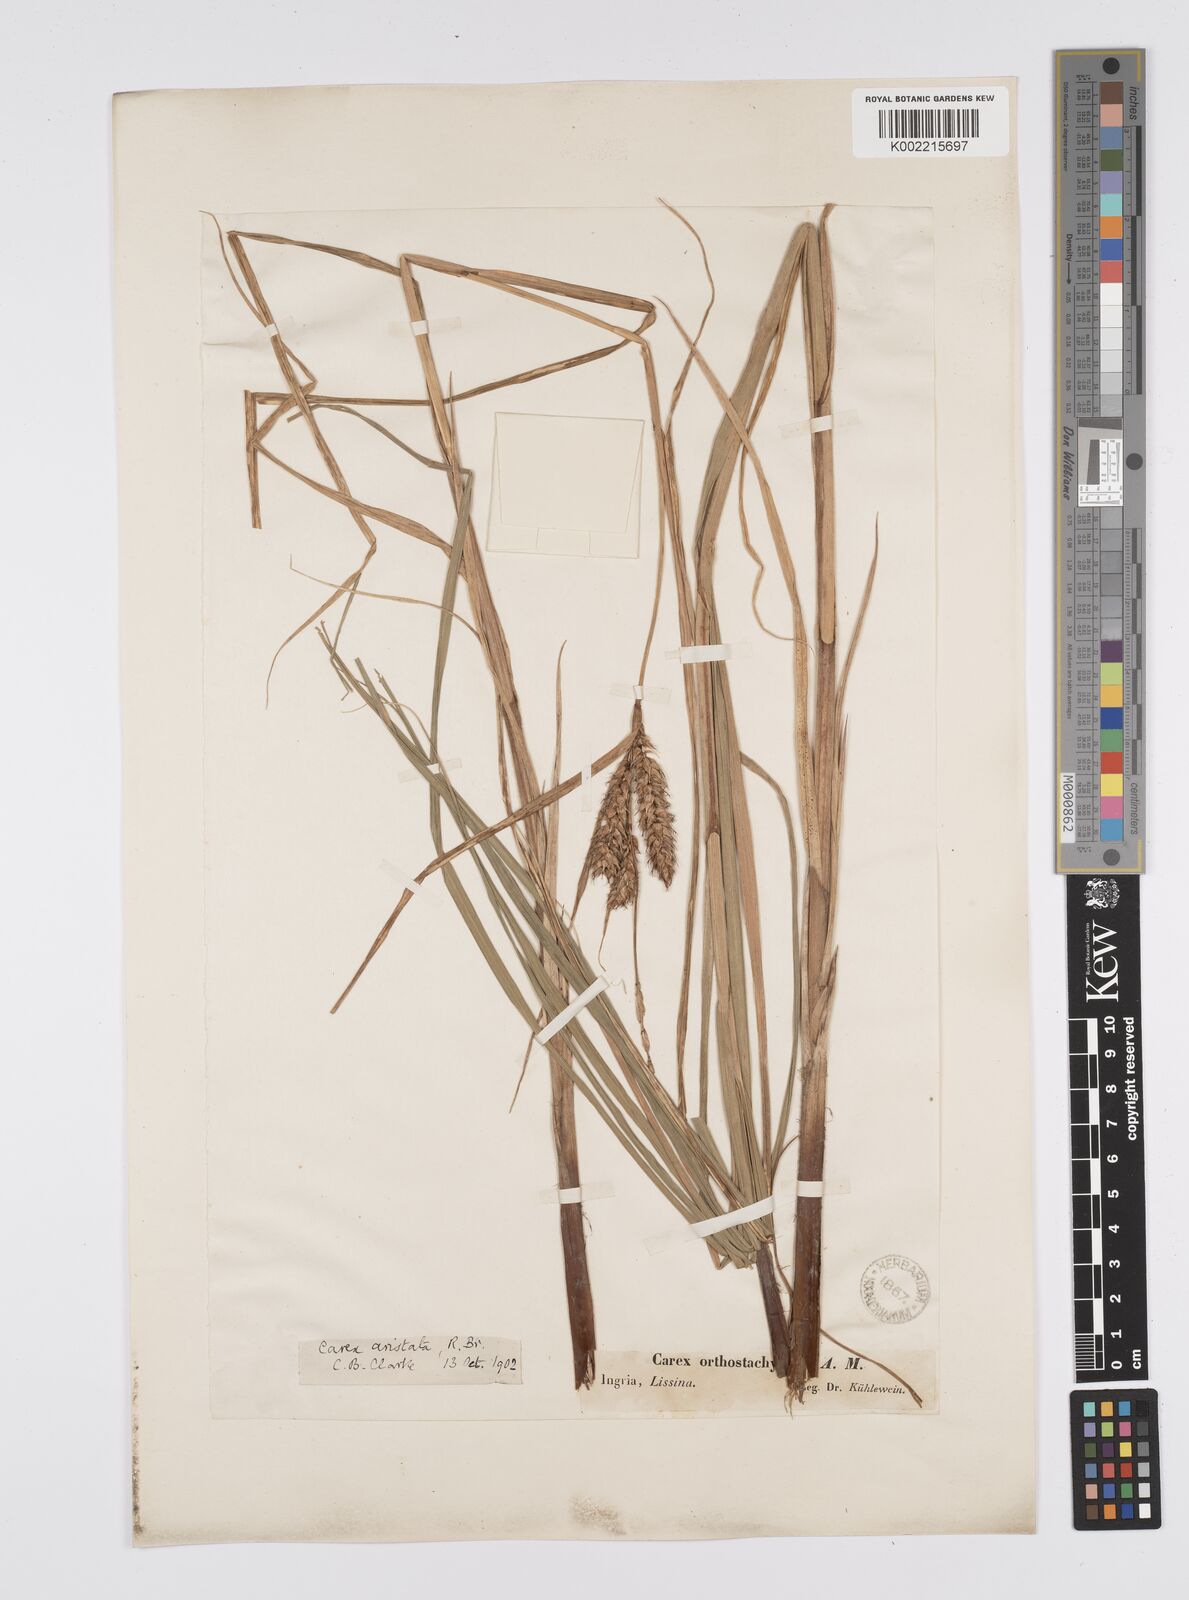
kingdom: Plantae
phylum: Tracheophyta
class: Liliopsida
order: Poales
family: Cyperaceae
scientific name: Cyperaceae
